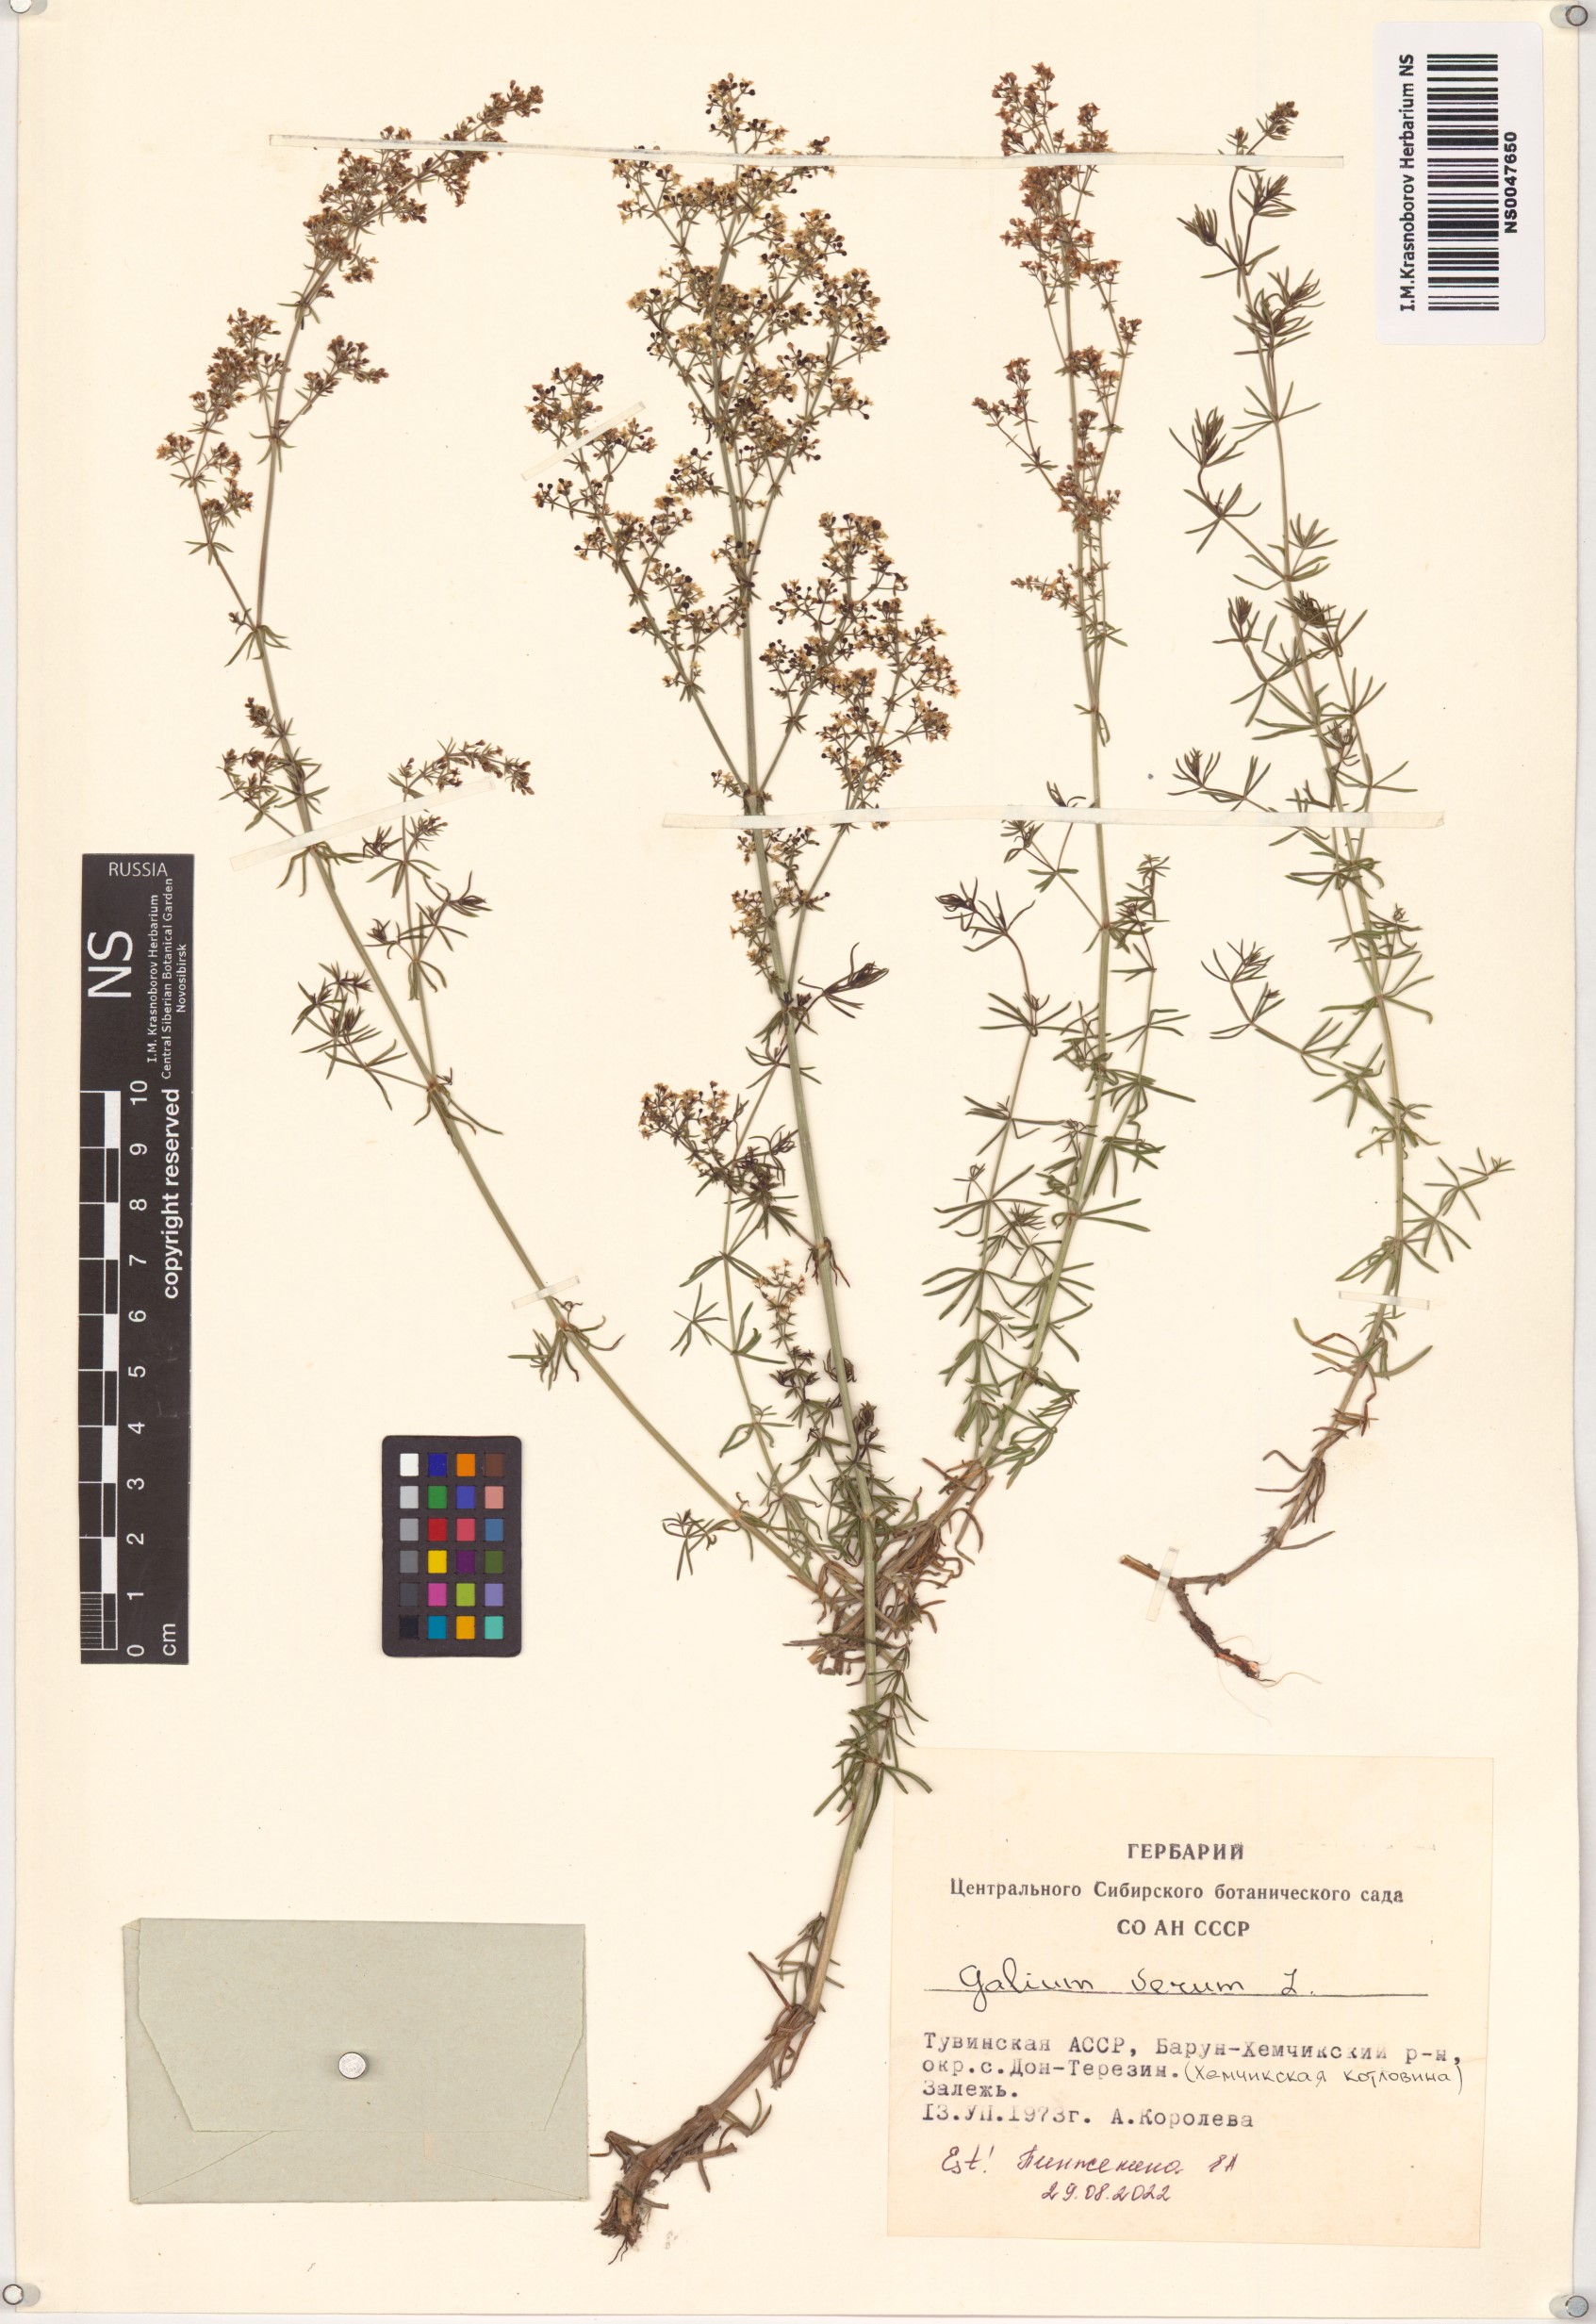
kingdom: Plantae
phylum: Tracheophyta
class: Magnoliopsida
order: Gentianales
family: Rubiaceae
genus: Galium
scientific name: Galium verum
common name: Lady's bedstraw
